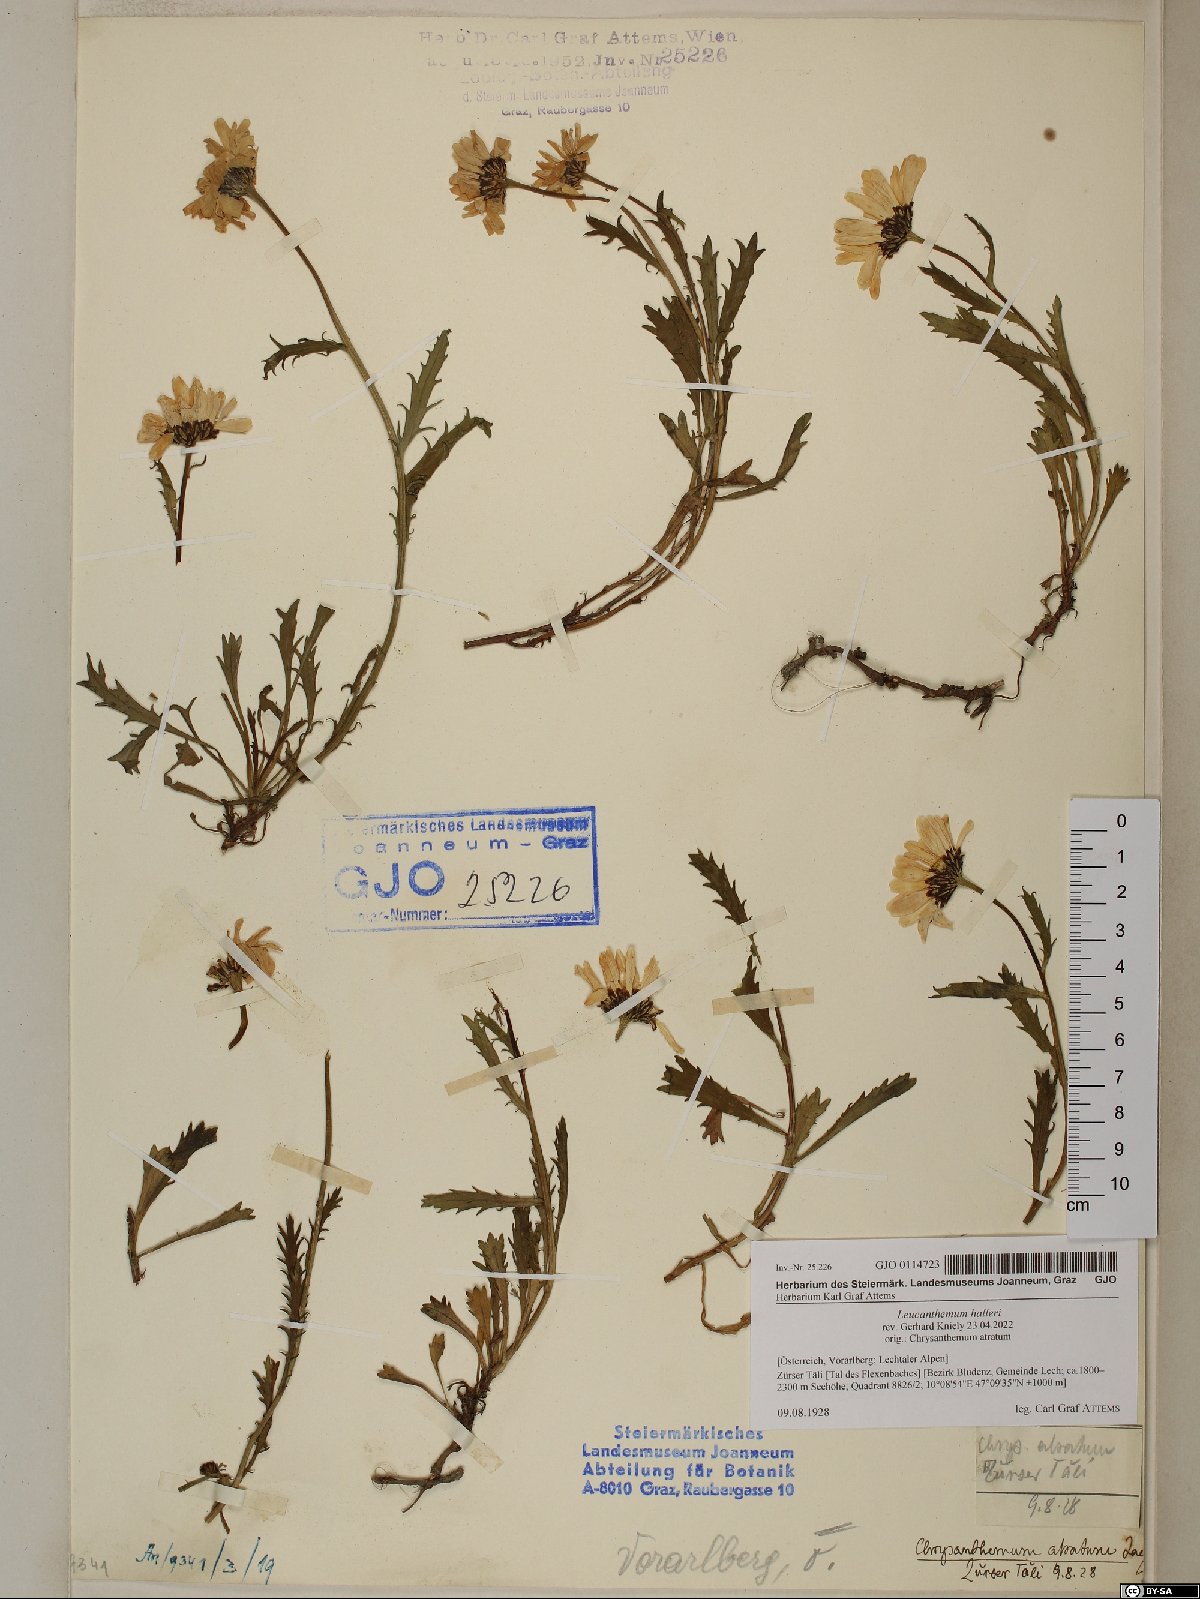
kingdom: Plantae
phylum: Tracheophyta
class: Magnoliopsida
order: Asterales
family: Asteraceae
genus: Leucanthemum
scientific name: Leucanthemum halleri
